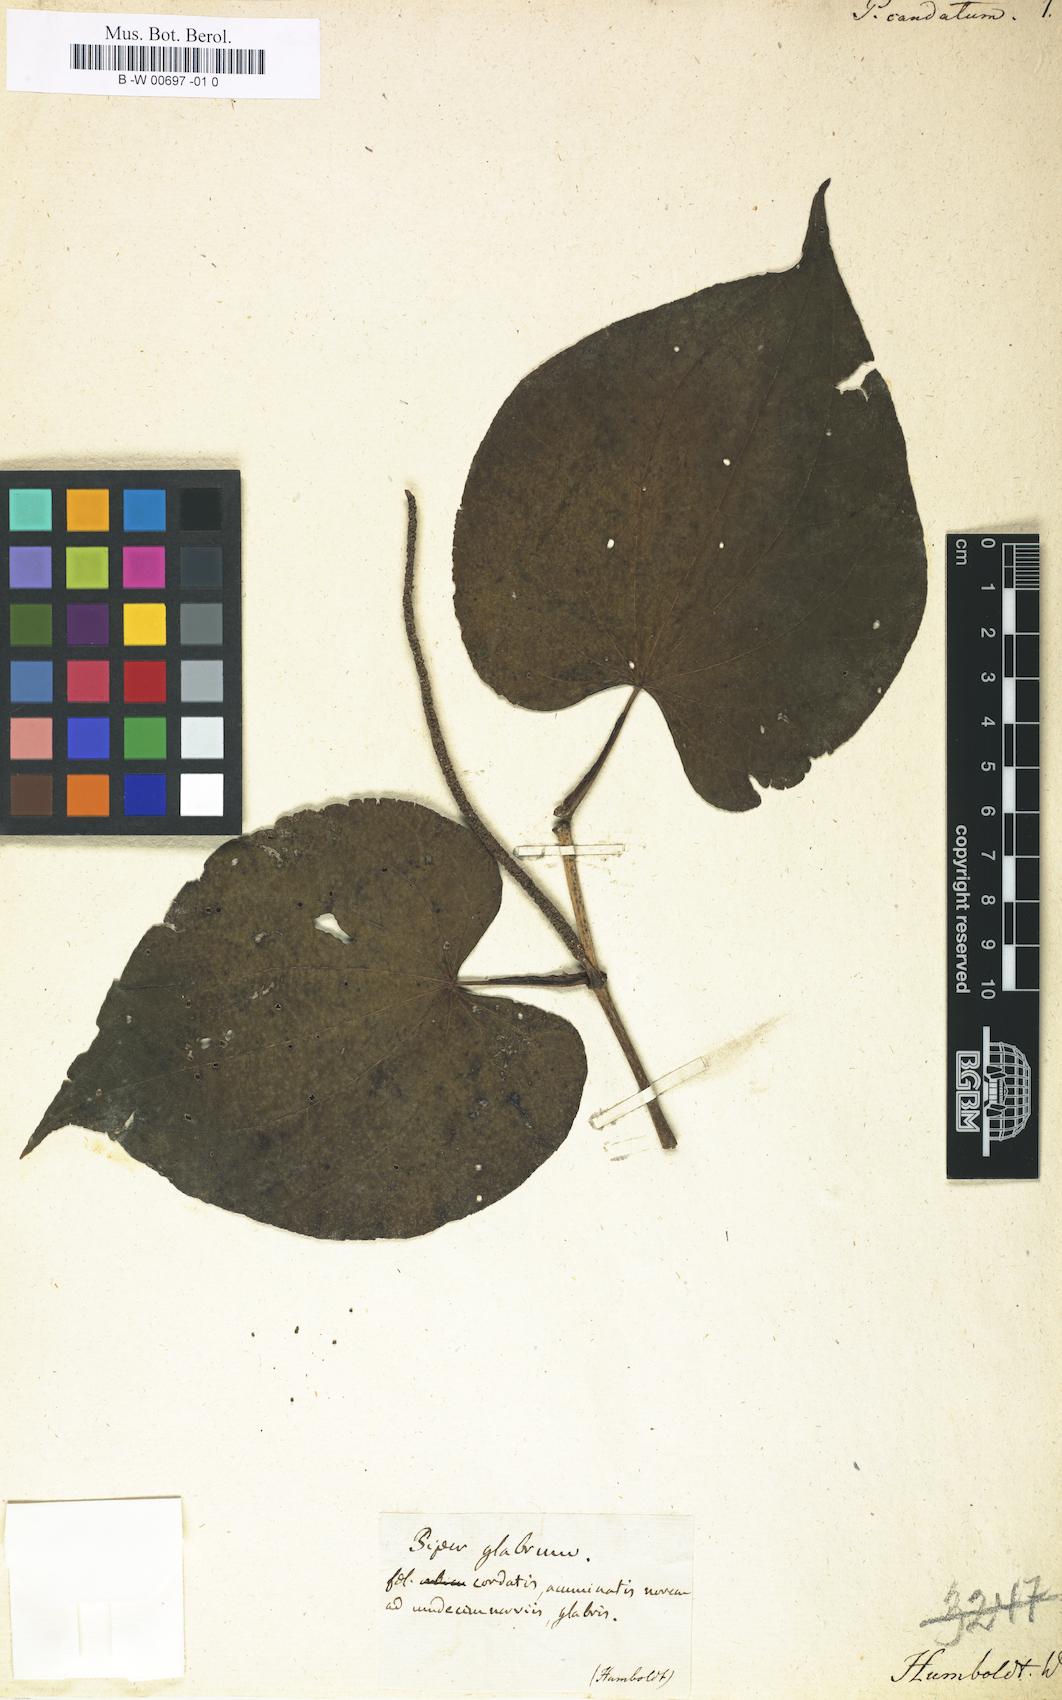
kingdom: Plantae
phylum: Tracheophyta
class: Magnoliopsida
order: Piperales
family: Piperaceae
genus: Piper
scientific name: Piper marginatum
